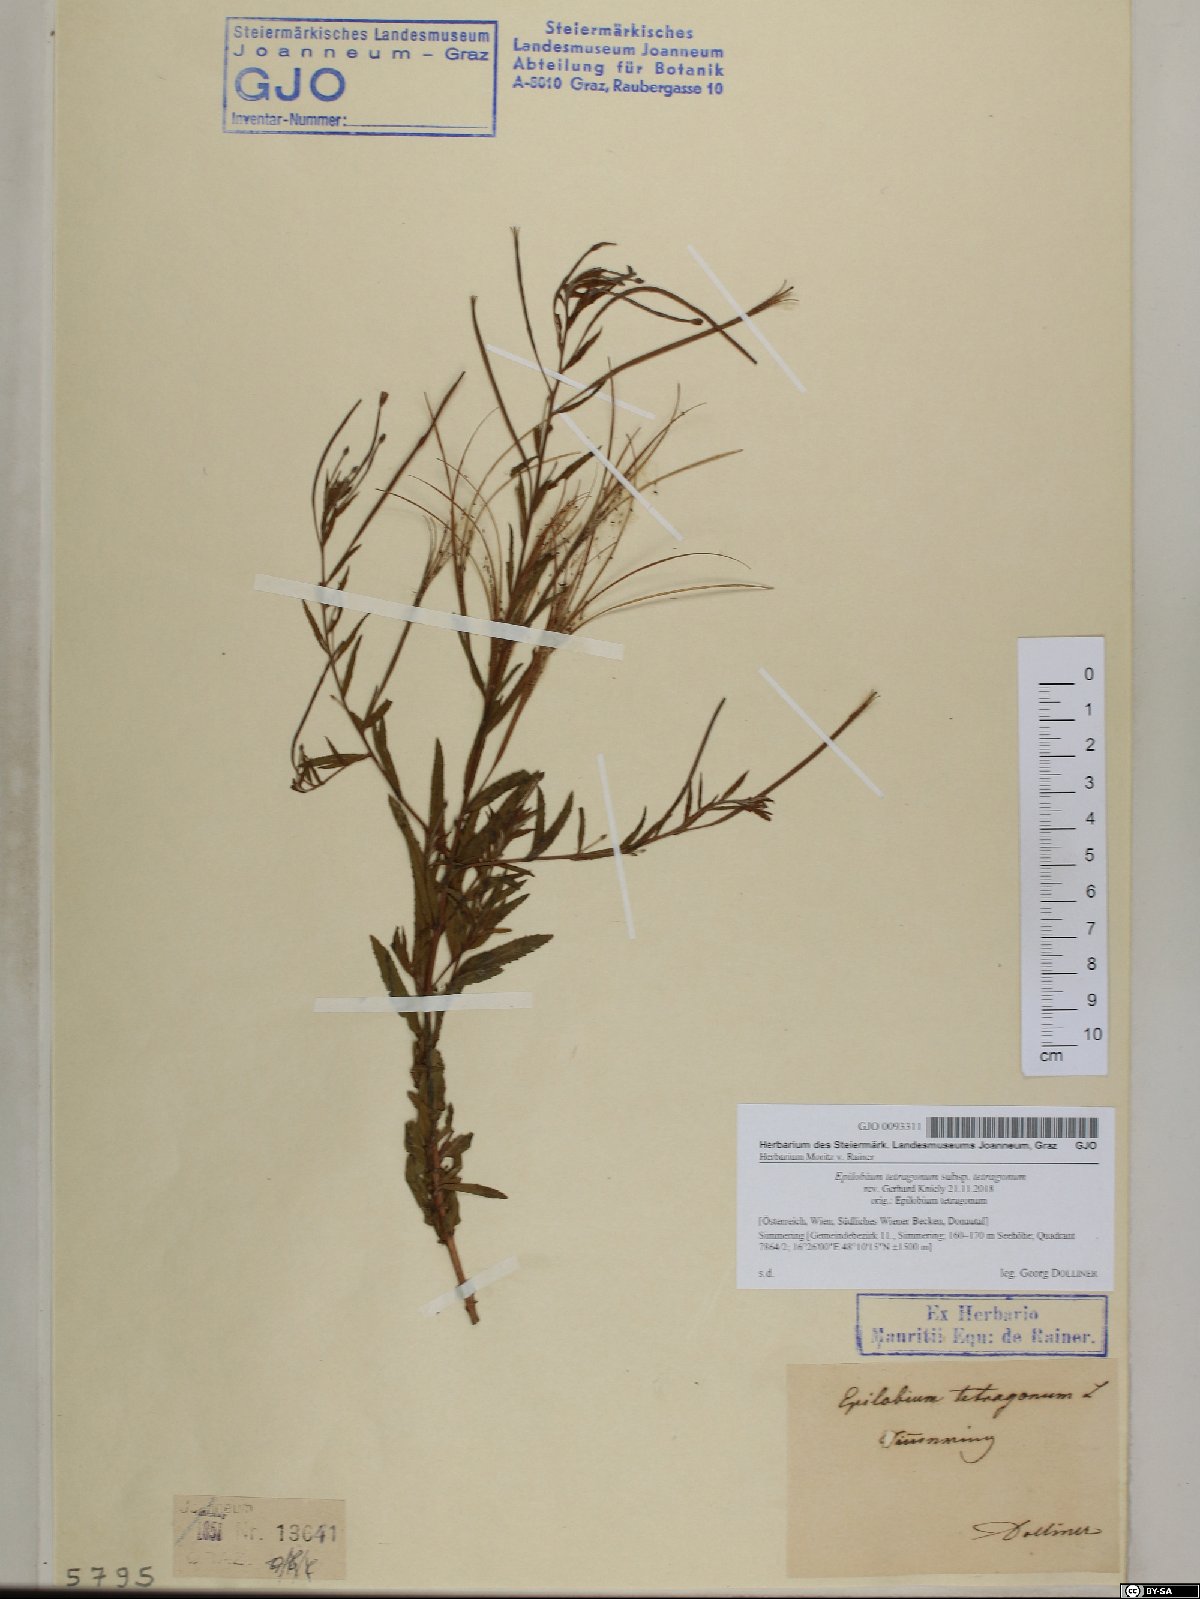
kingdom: Plantae
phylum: Tracheophyta
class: Magnoliopsida
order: Myrtales
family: Onagraceae
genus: Epilobium
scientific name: Epilobium tetragonum
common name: Square-stemmed willowherb
